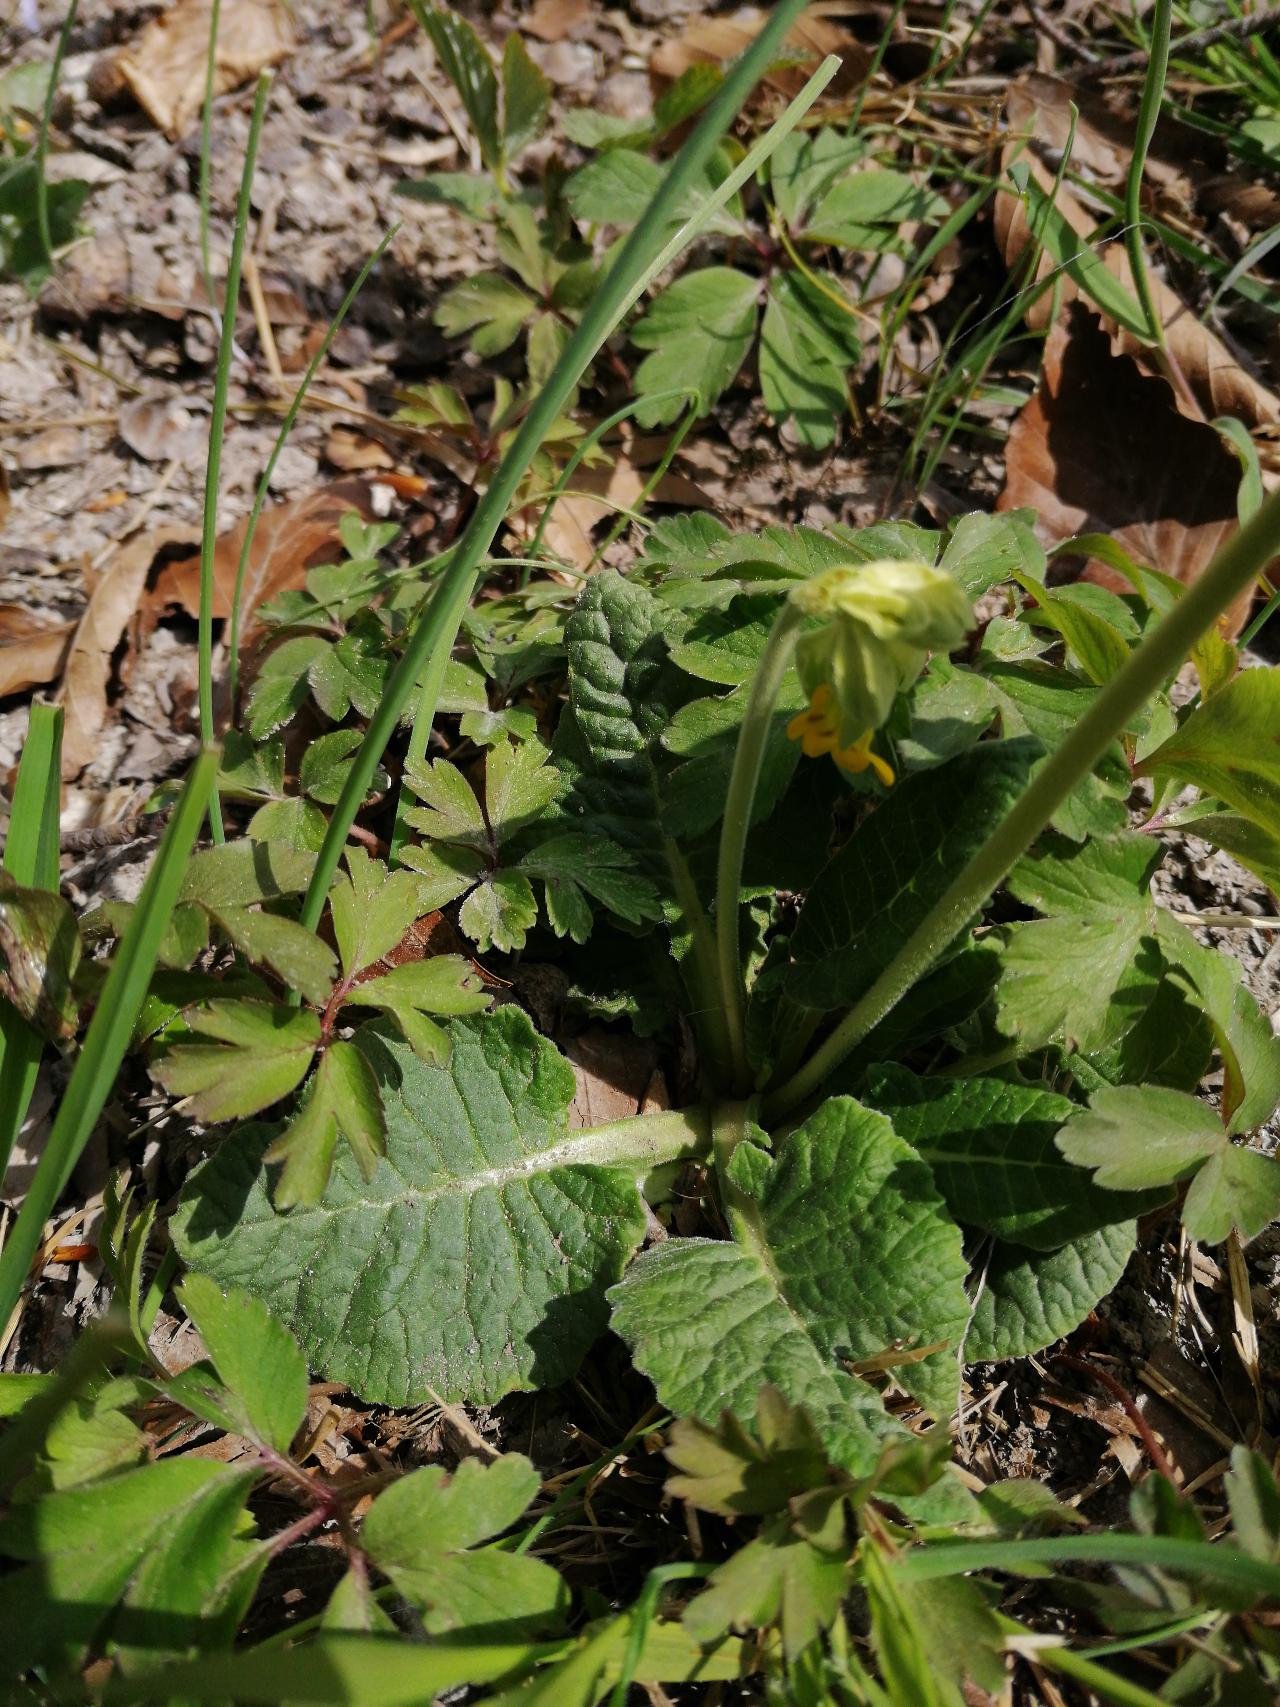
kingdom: Plantae
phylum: Tracheophyta
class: Magnoliopsida
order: Ericales
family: Primulaceae
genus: Primula
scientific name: Primula veris
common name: Hulkravet kodriver
